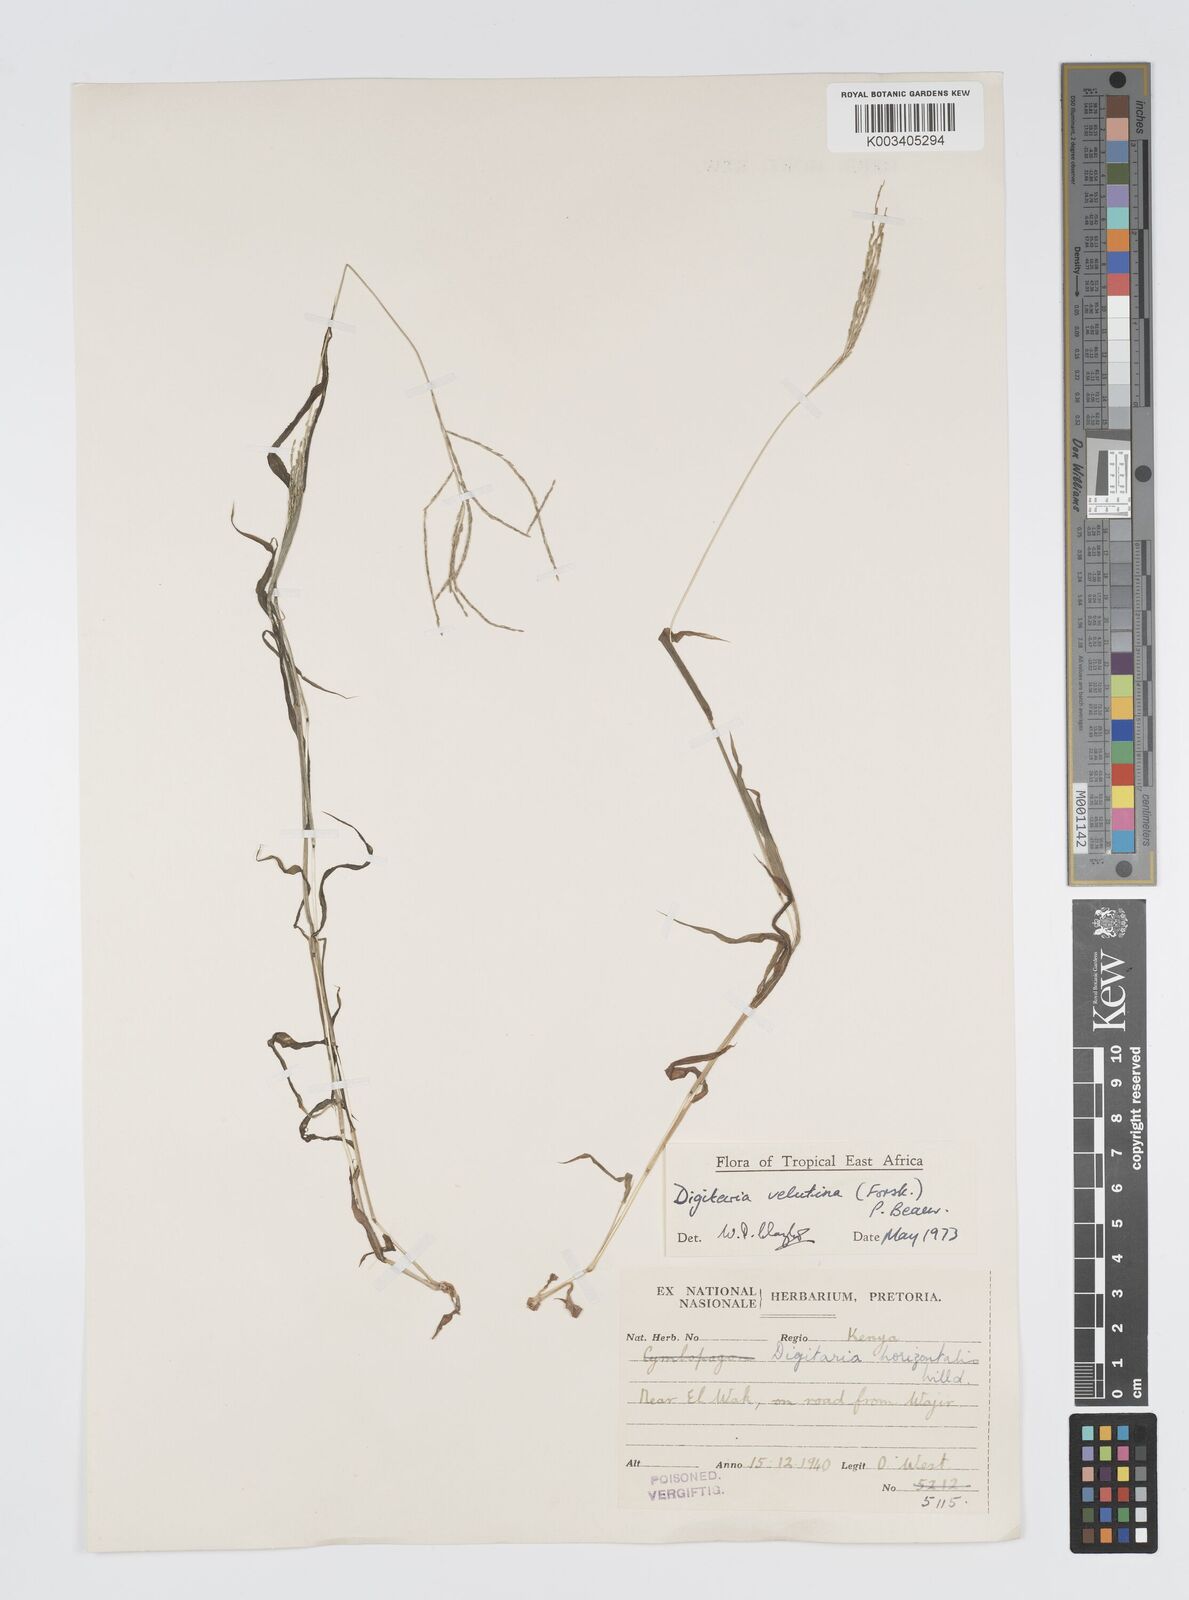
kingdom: Plantae
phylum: Tracheophyta
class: Liliopsida
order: Poales
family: Poaceae
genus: Digitaria
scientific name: Digitaria velutina
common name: Long-plume finger grass
